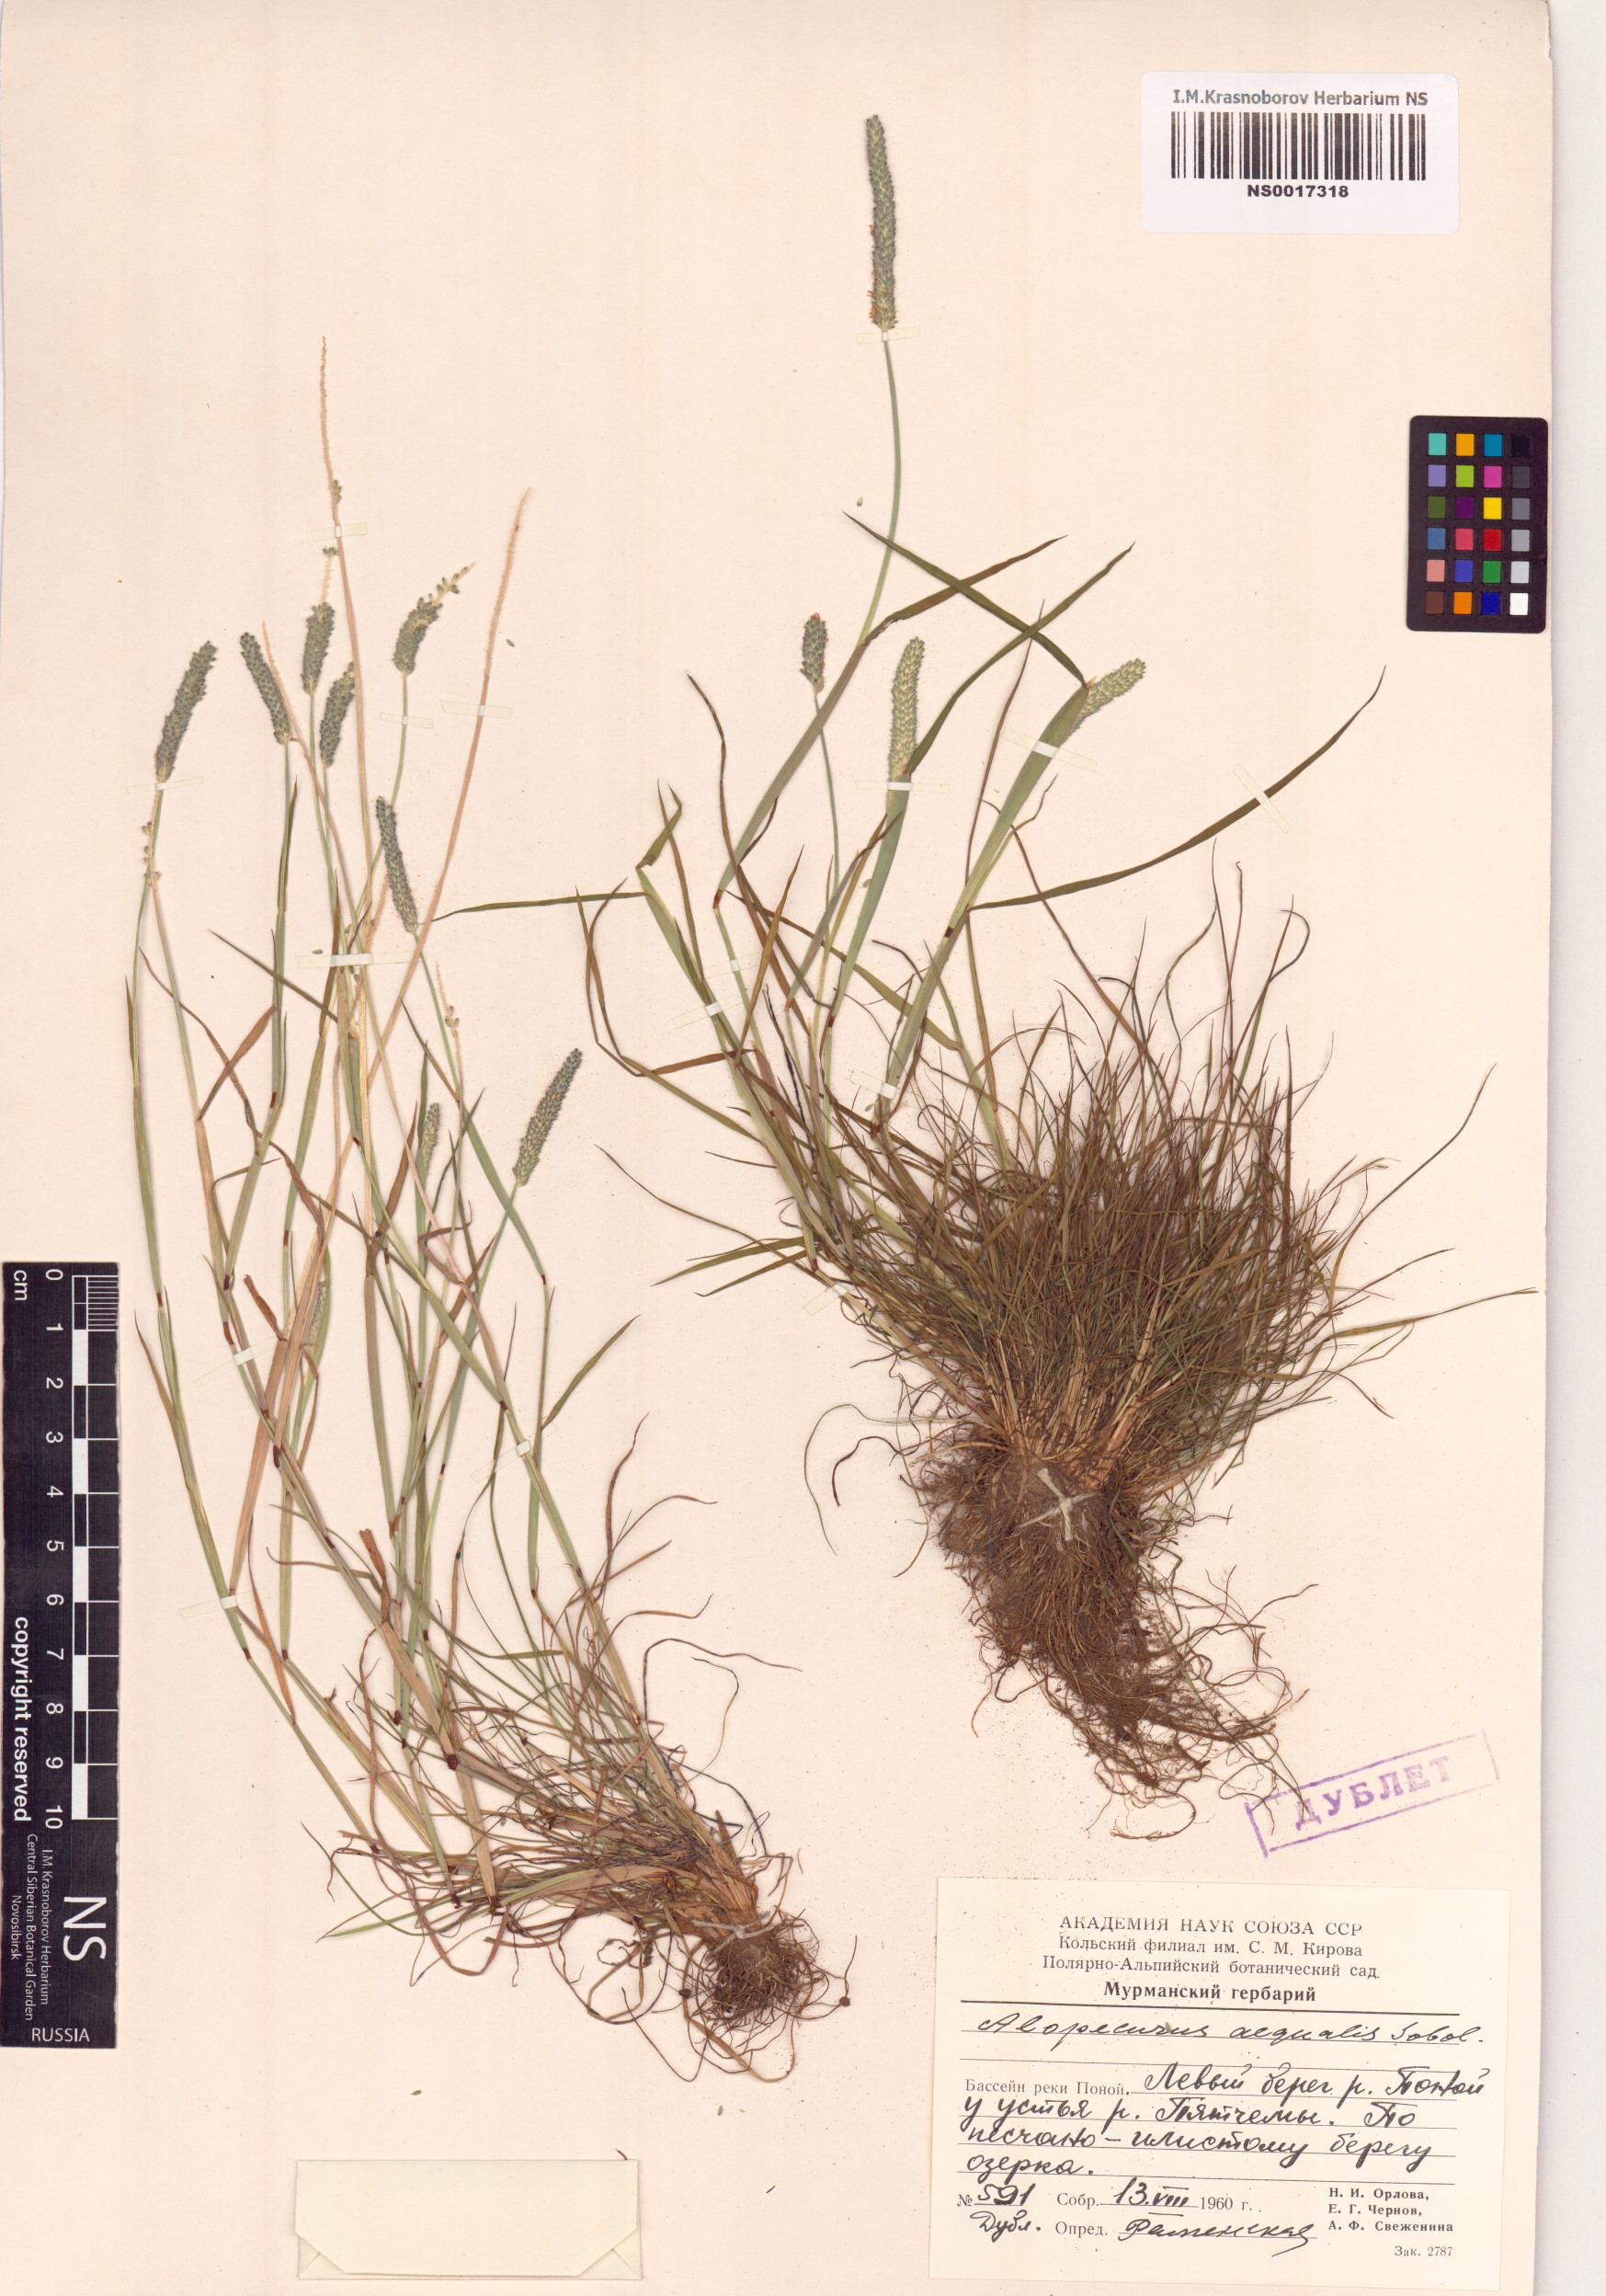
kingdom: Plantae
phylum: Tracheophyta
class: Liliopsida
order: Poales
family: Poaceae
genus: Alopecurus
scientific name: Alopecurus aequalis
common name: Orange foxtail
